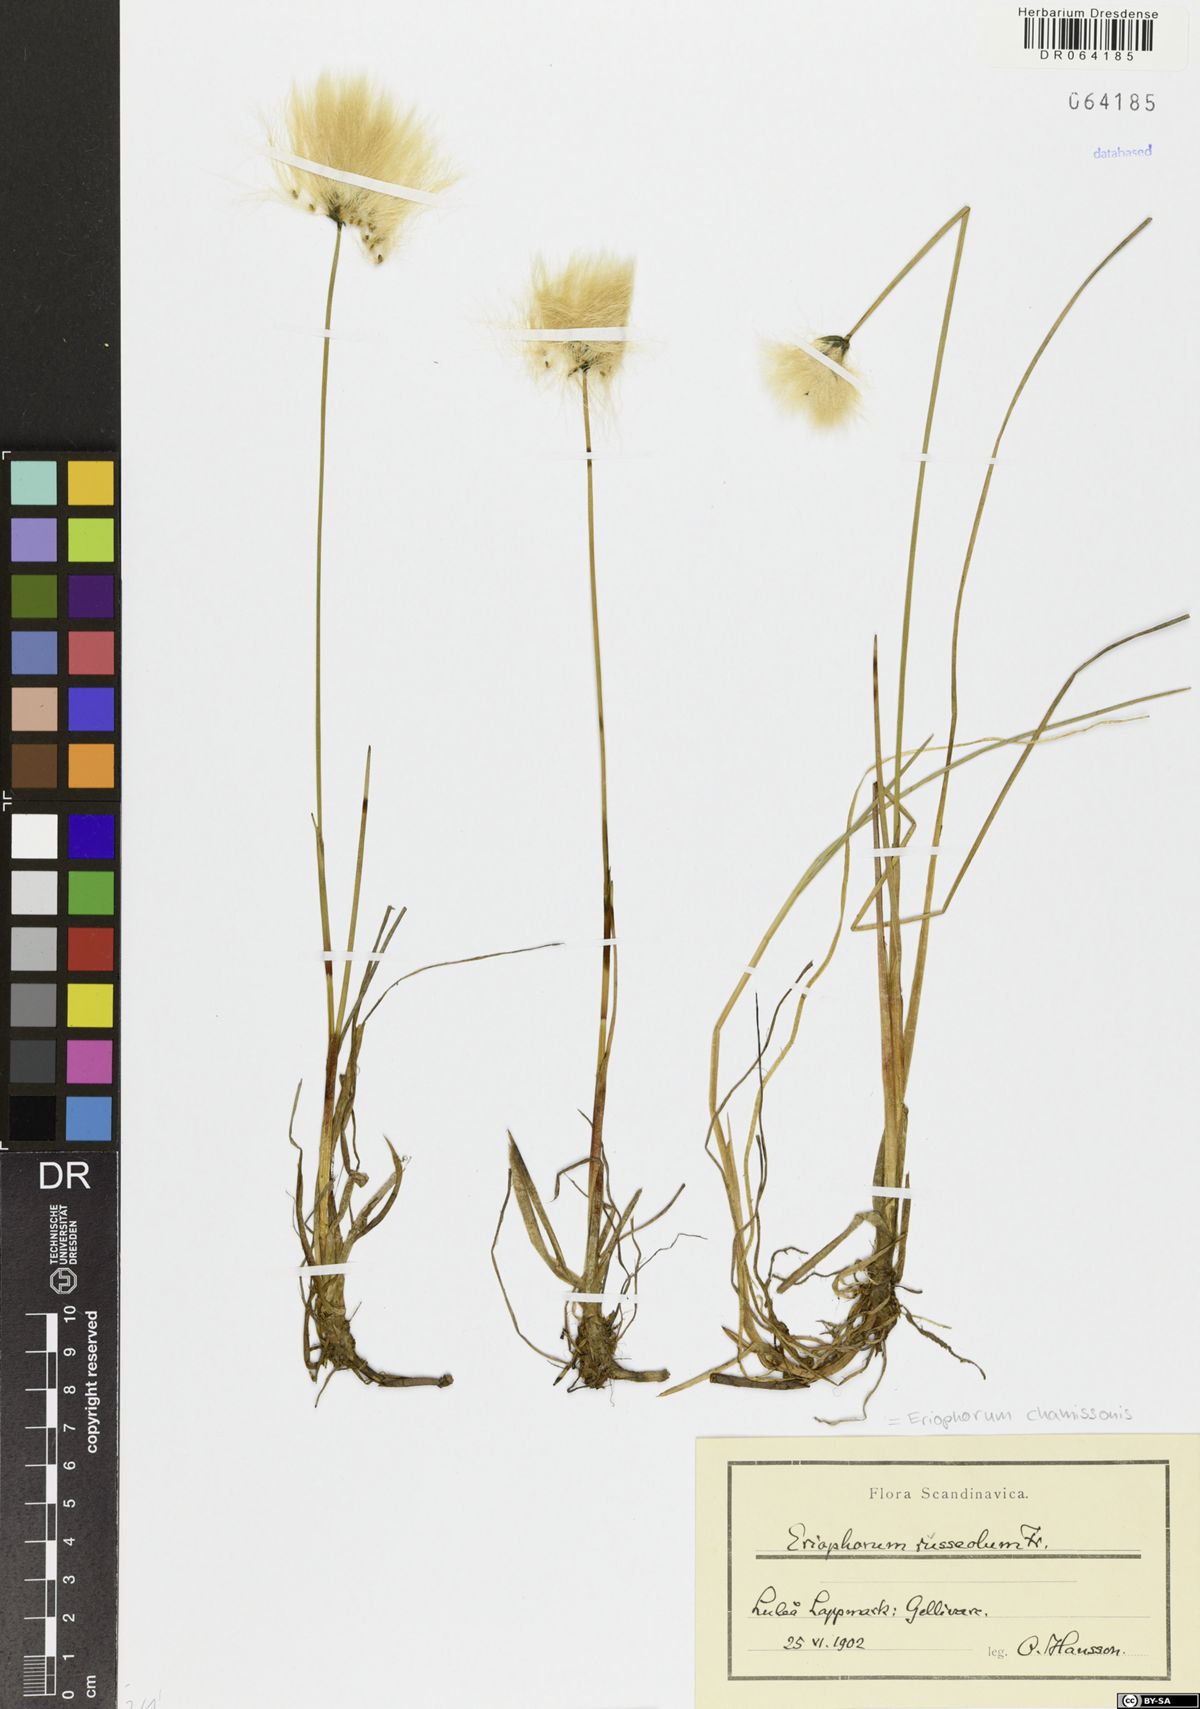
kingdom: Plantae
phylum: Tracheophyta
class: Liliopsida
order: Poales
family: Cyperaceae
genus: Eriophorum
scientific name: Eriophorum chamissonis
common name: Chamisso's cottongrass
